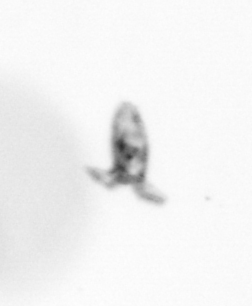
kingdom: Animalia
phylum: Arthropoda
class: Copepoda
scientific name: Copepoda
